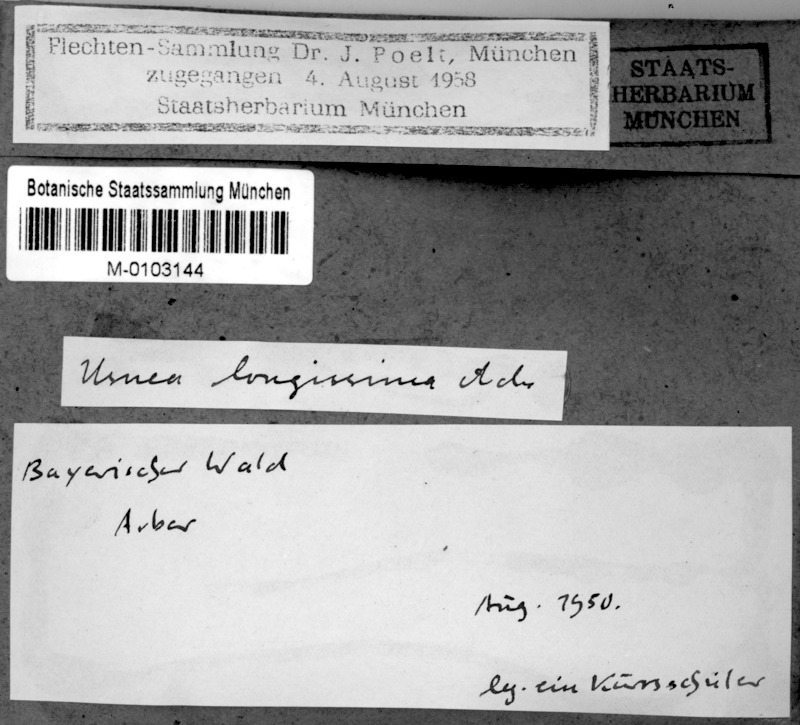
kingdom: Fungi
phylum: Ascomycota
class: Lecanoromycetes
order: Lecanorales
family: Parmeliaceae
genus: Dolichousnea
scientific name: Dolichousnea longissima
